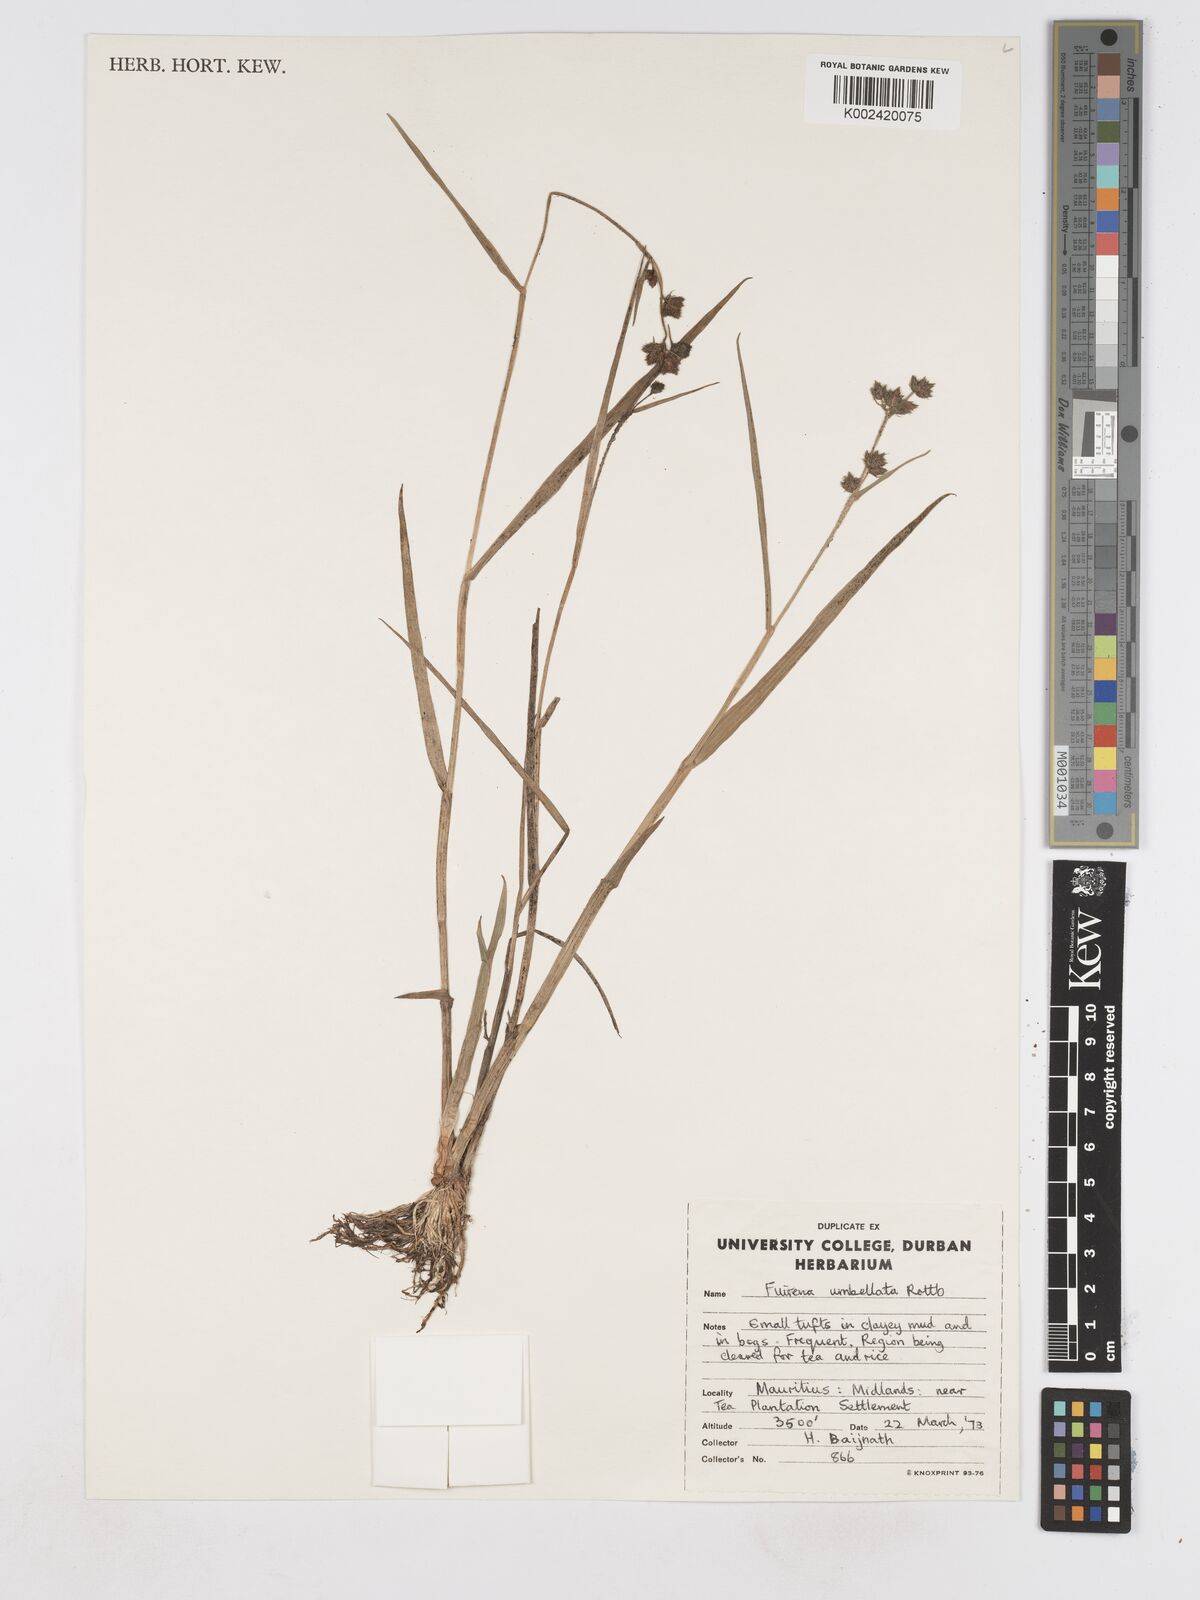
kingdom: Plantae
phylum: Tracheophyta
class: Liliopsida
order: Poales
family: Cyperaceae
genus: Fuirena
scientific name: Fuirena umbellata
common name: Yefen
